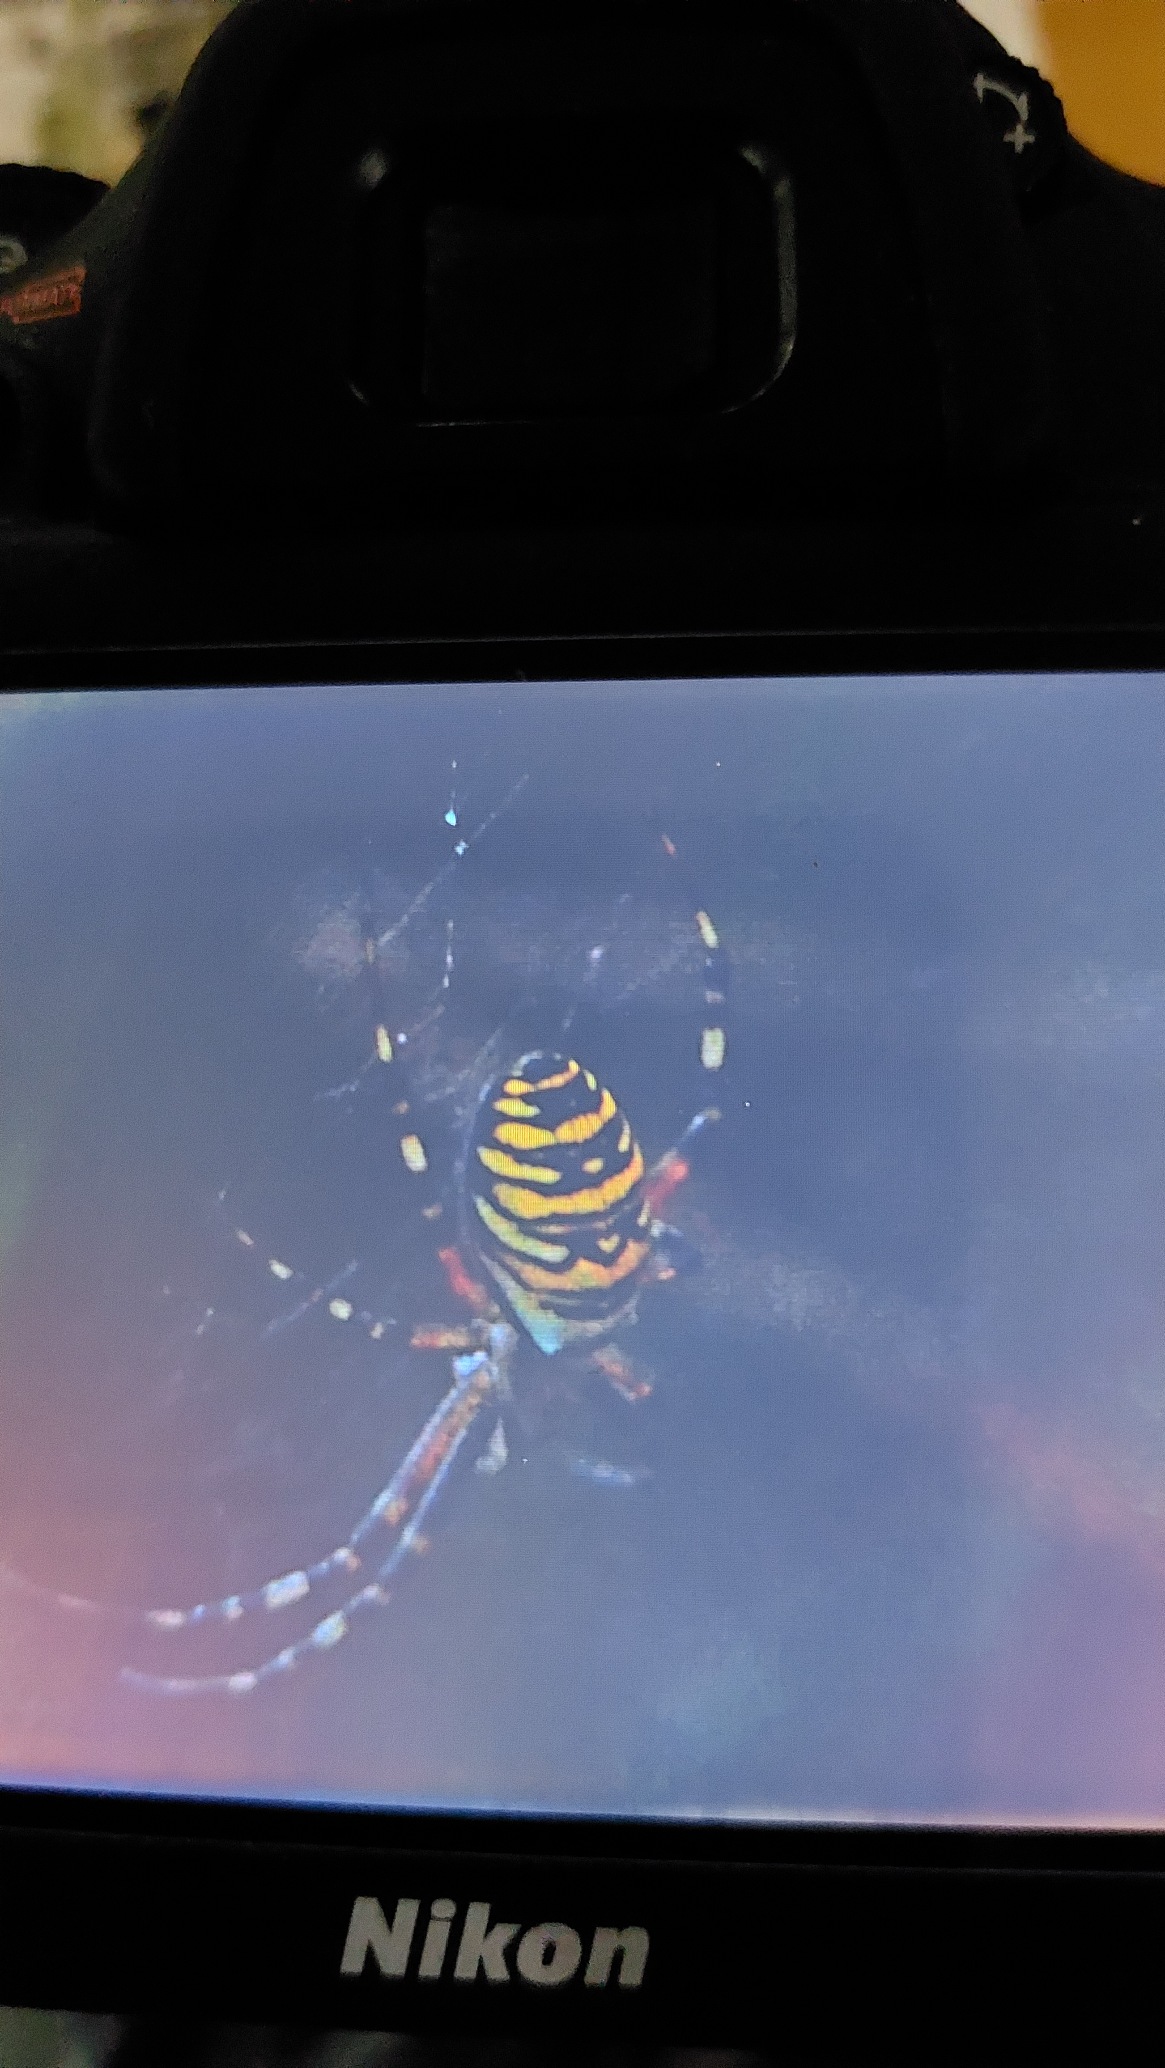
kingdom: Animalia
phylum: Arthropoda
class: Arachnida
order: Araneae
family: Araneidae
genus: Argiope
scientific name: Argiope bruennichi
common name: Hvepseedderkop
